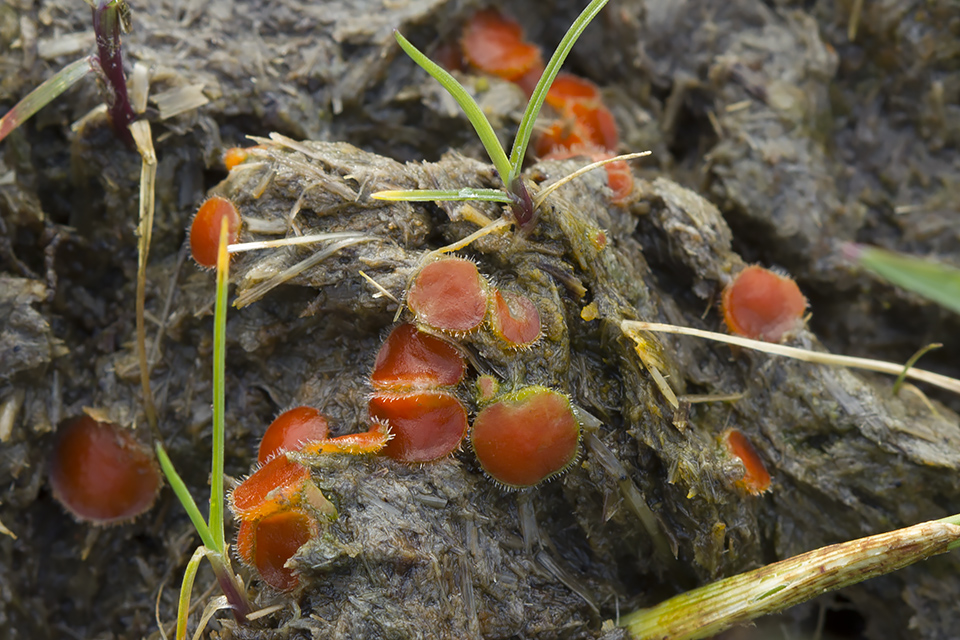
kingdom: Fungi
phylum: Ascomycota
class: Pezizomycetes
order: Pezizales
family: Pyronemataceae
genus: Cheilymenia
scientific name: Cheilymenia stercorea
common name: gødnings-hårbæger
